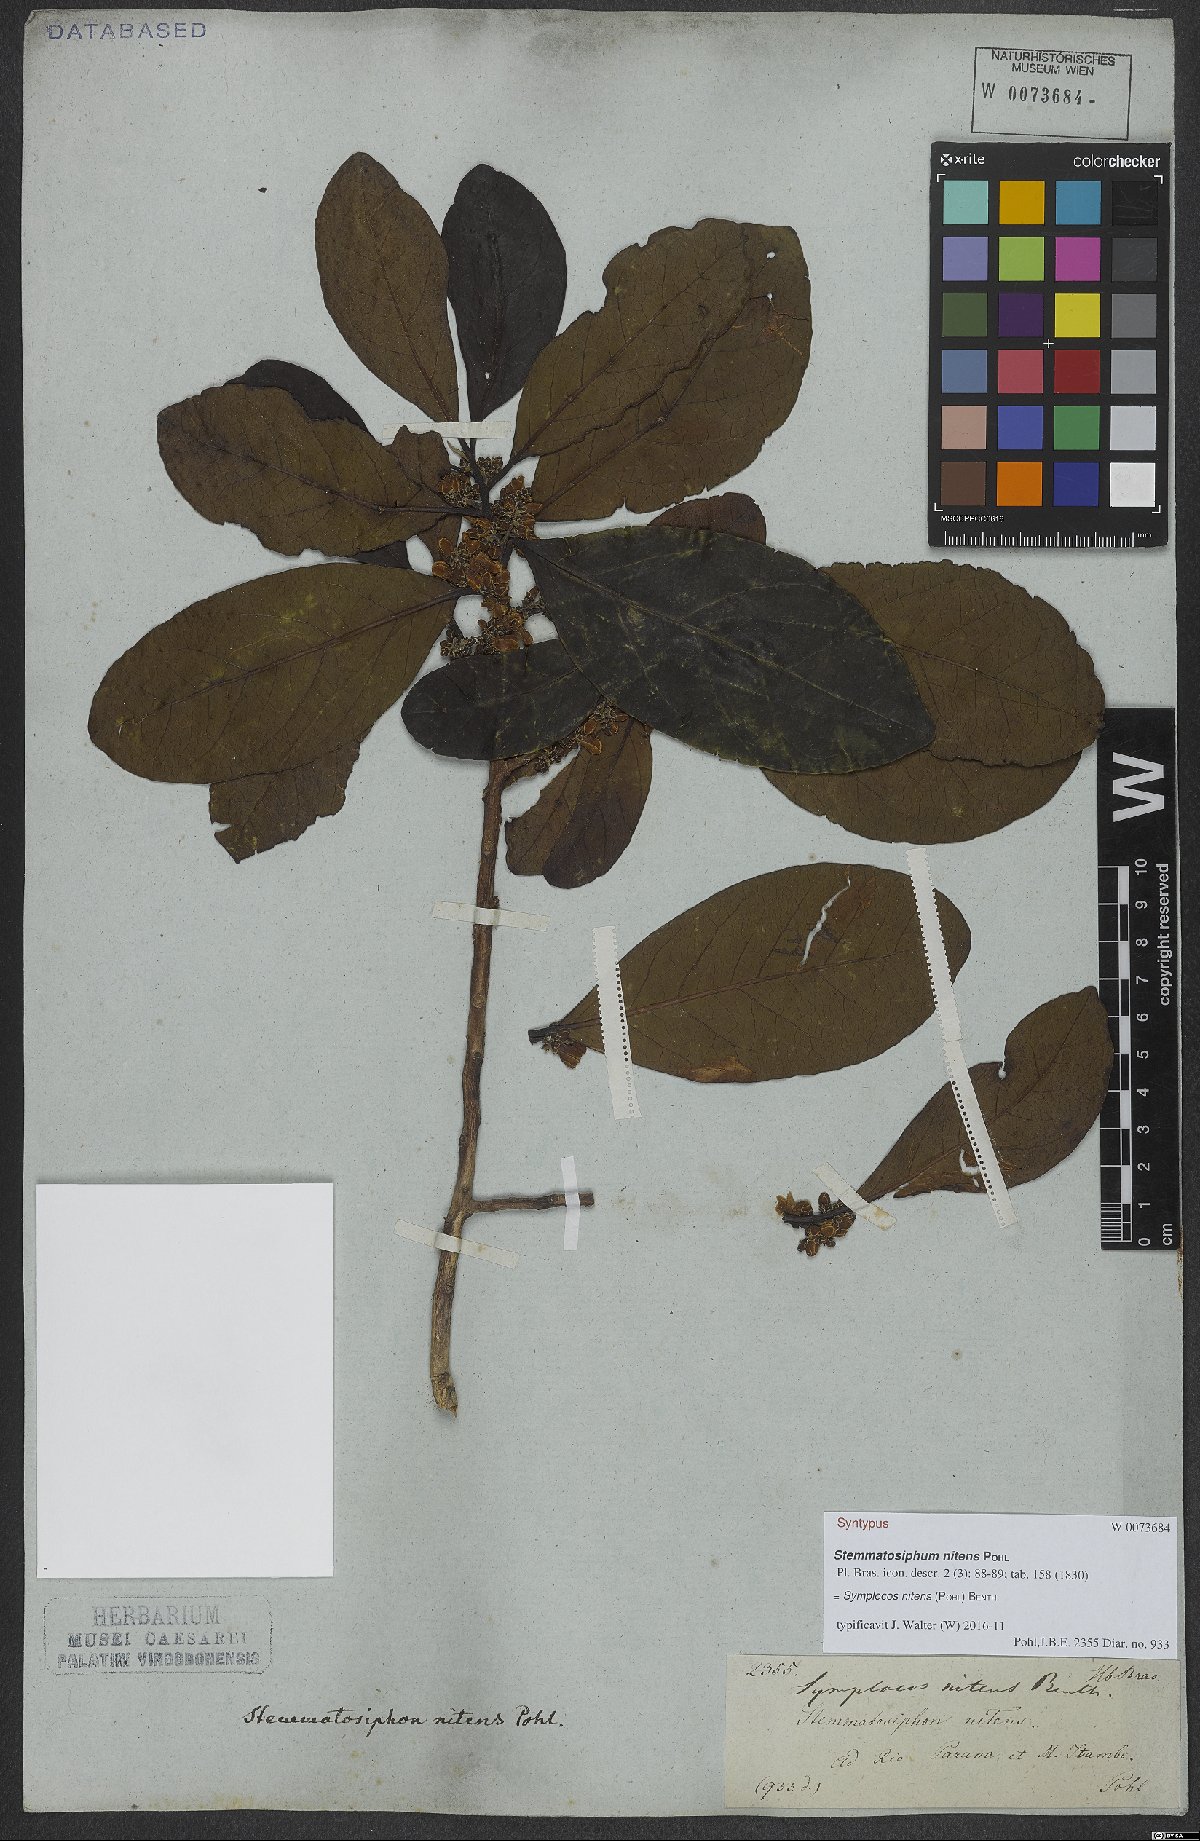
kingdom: Plantae
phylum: Tracheophyta
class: Magnoliopsida
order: Ericales
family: Symplocaceae
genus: Symplocos
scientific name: Symplocos nitens
